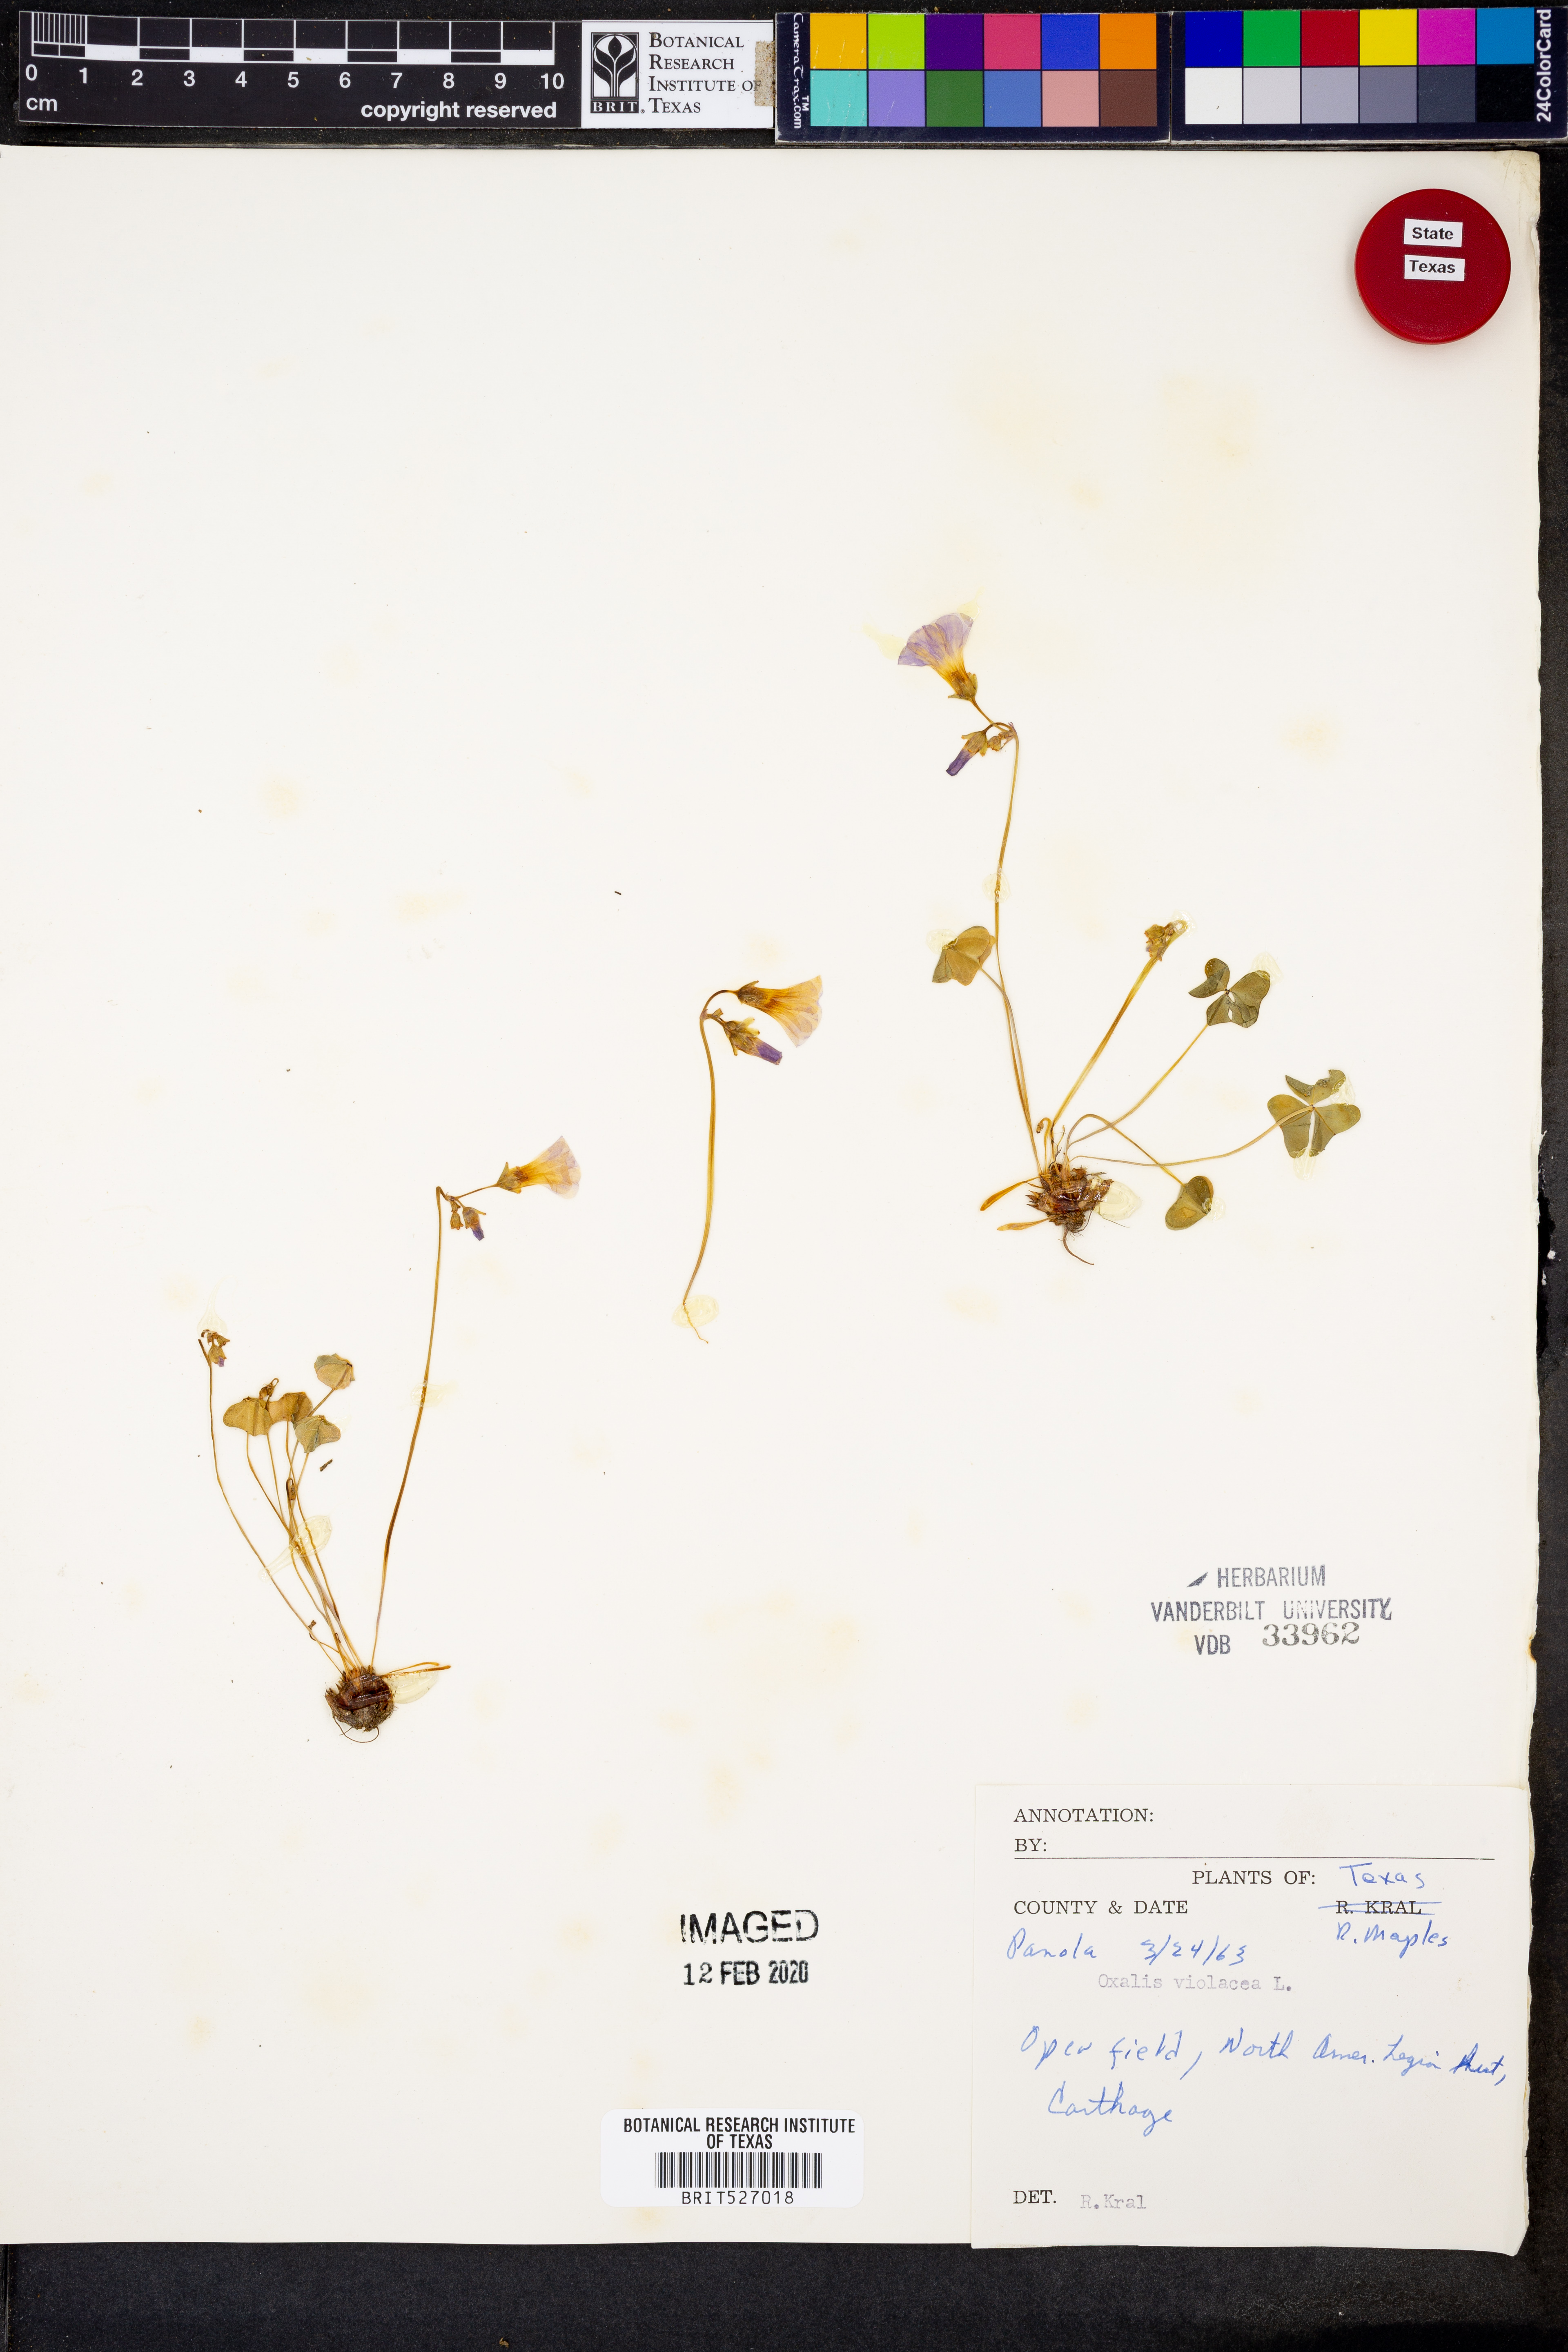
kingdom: Plantae
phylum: Tracheophyta
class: Magnoliopsida
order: Oxalidales
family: Oxalidaceae
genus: Oxalis
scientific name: Oxalis violacea
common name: Violet wood-sorrel
